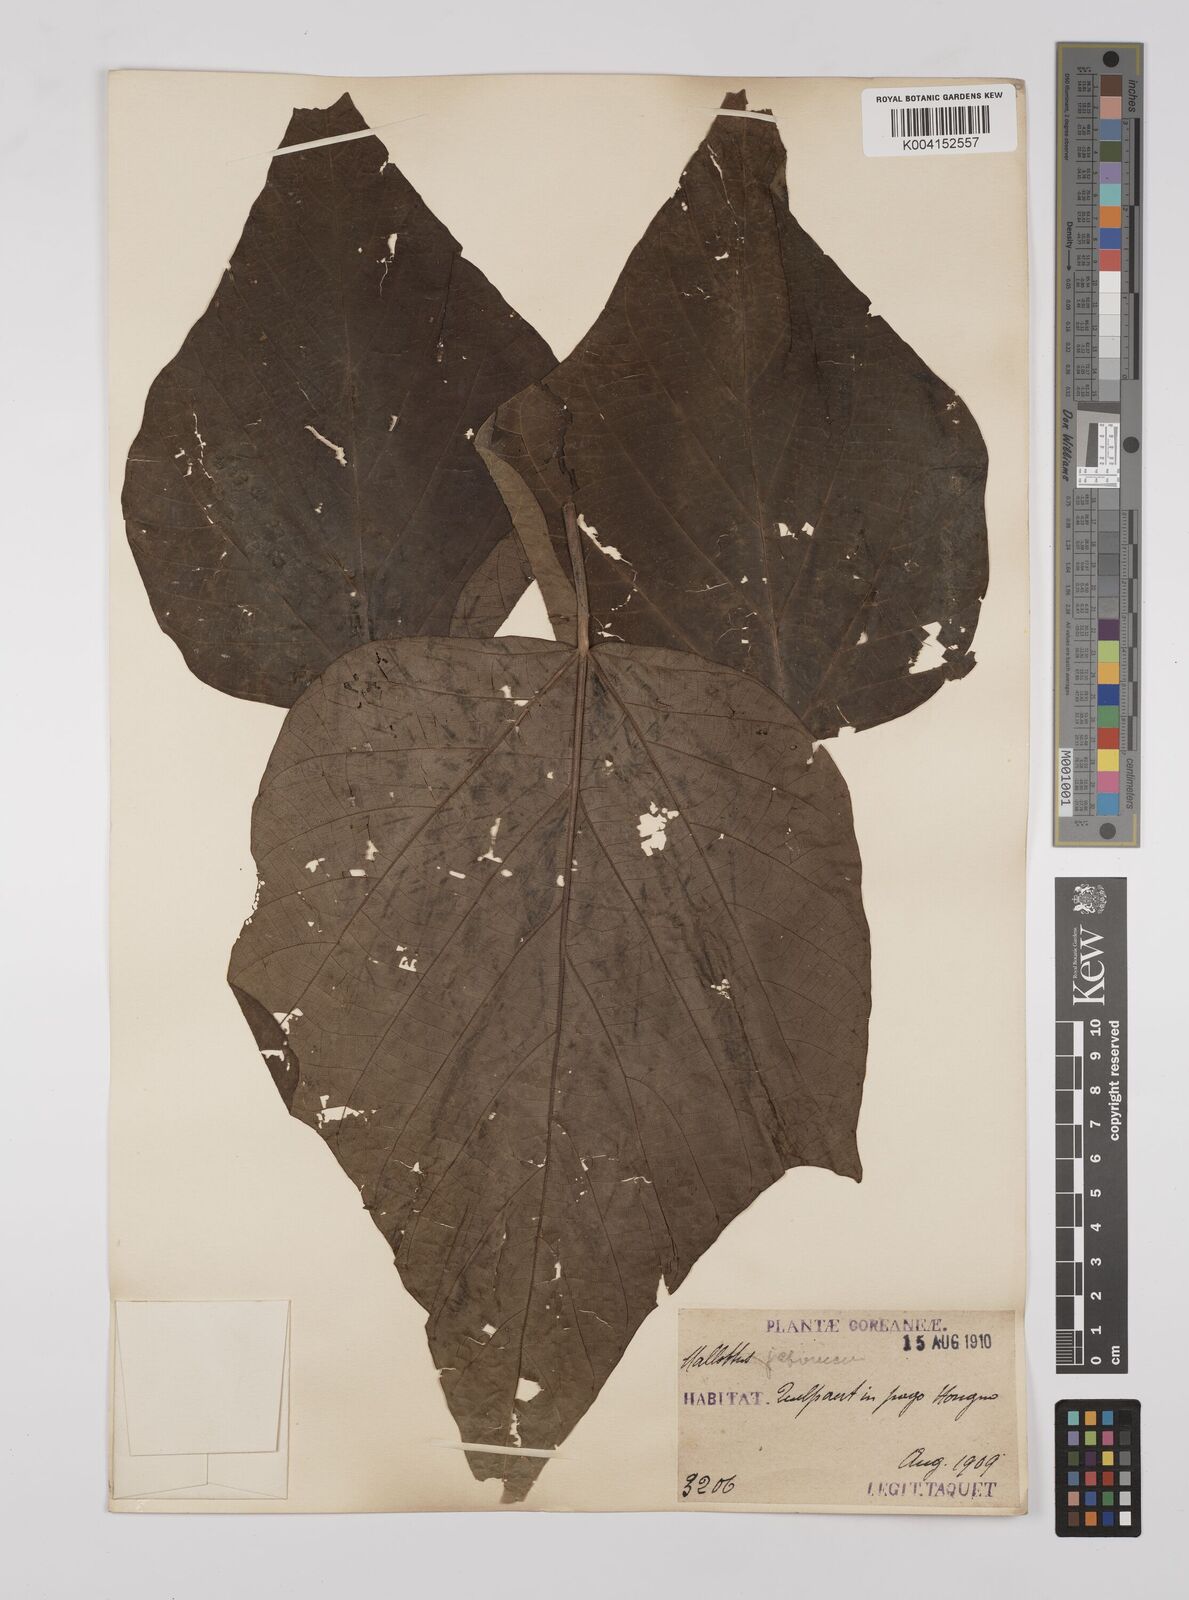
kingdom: Plantae
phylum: Tracheophyta
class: Magnoliopsida
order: Malpighiales
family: Euphorbiaceae
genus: Mallotus
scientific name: Mallotus japonicus
